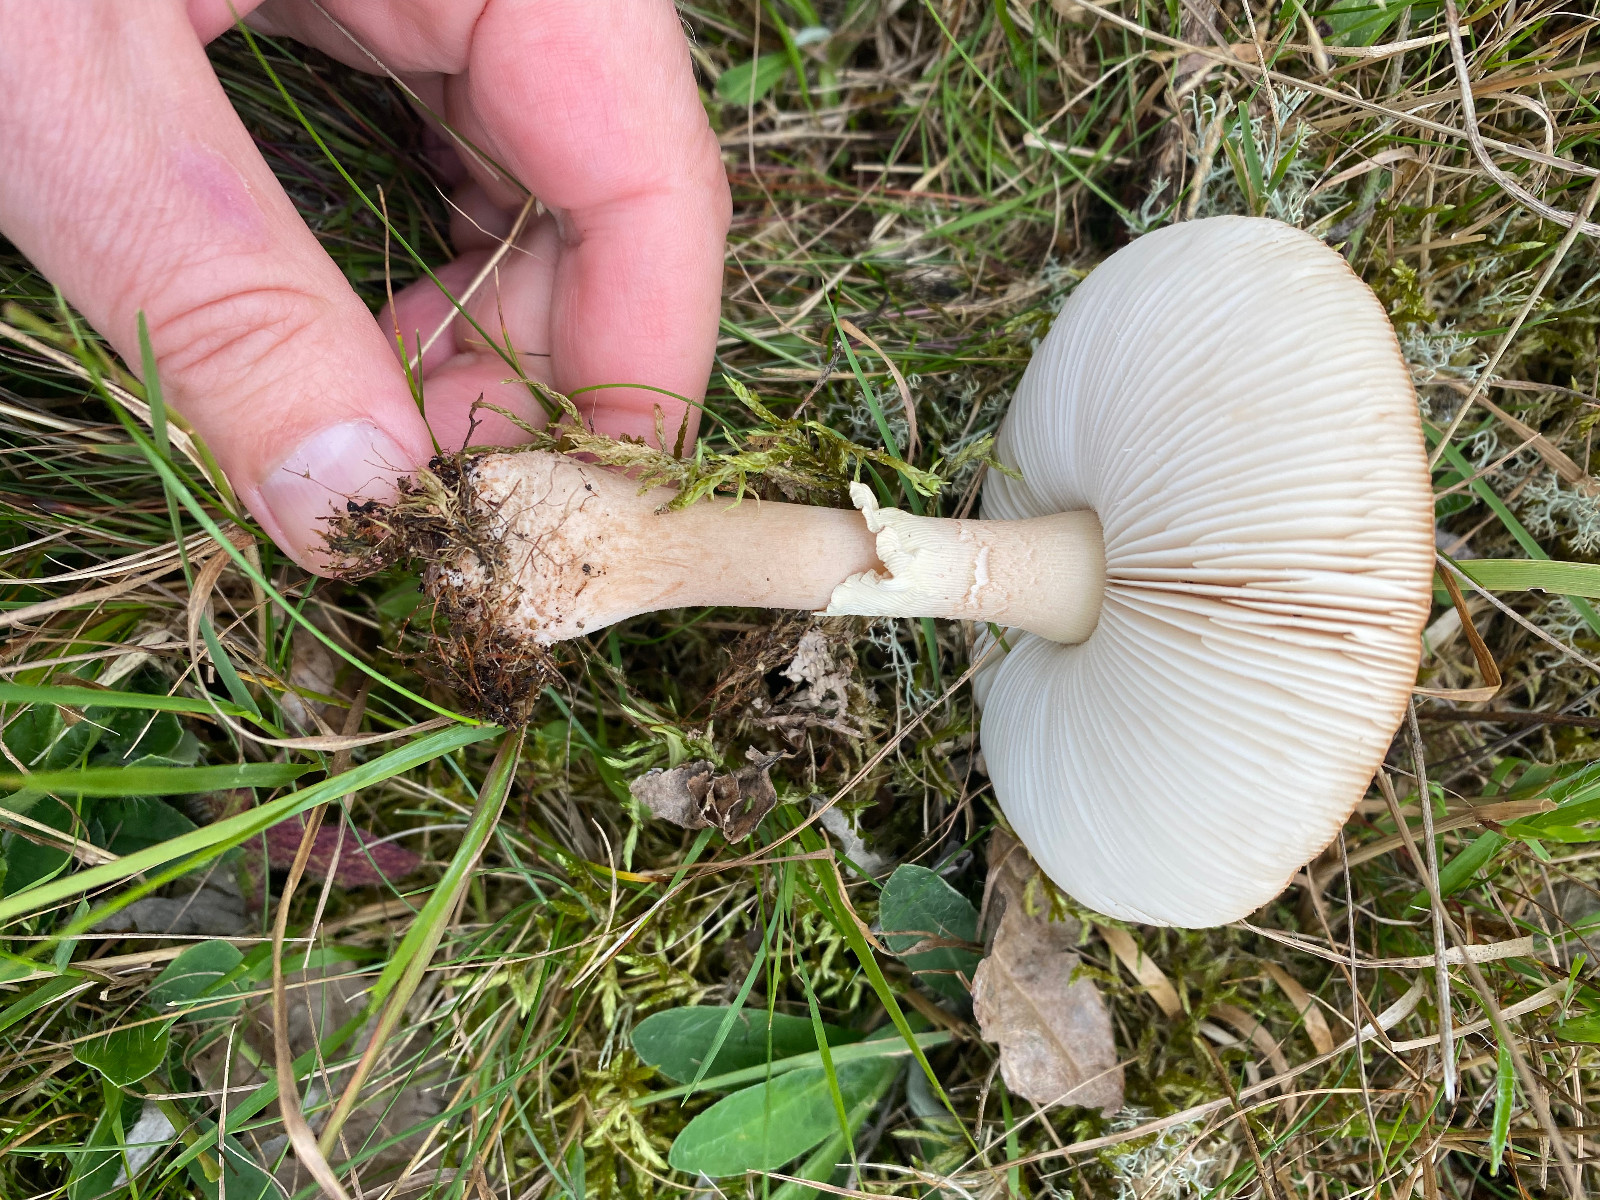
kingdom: Fungi
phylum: Basidiomycota
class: Agaricomycetes
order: Agaricales
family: Amanitaceae
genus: Amanita
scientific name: Amanita rubescens
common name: rødmende fluesvamp
